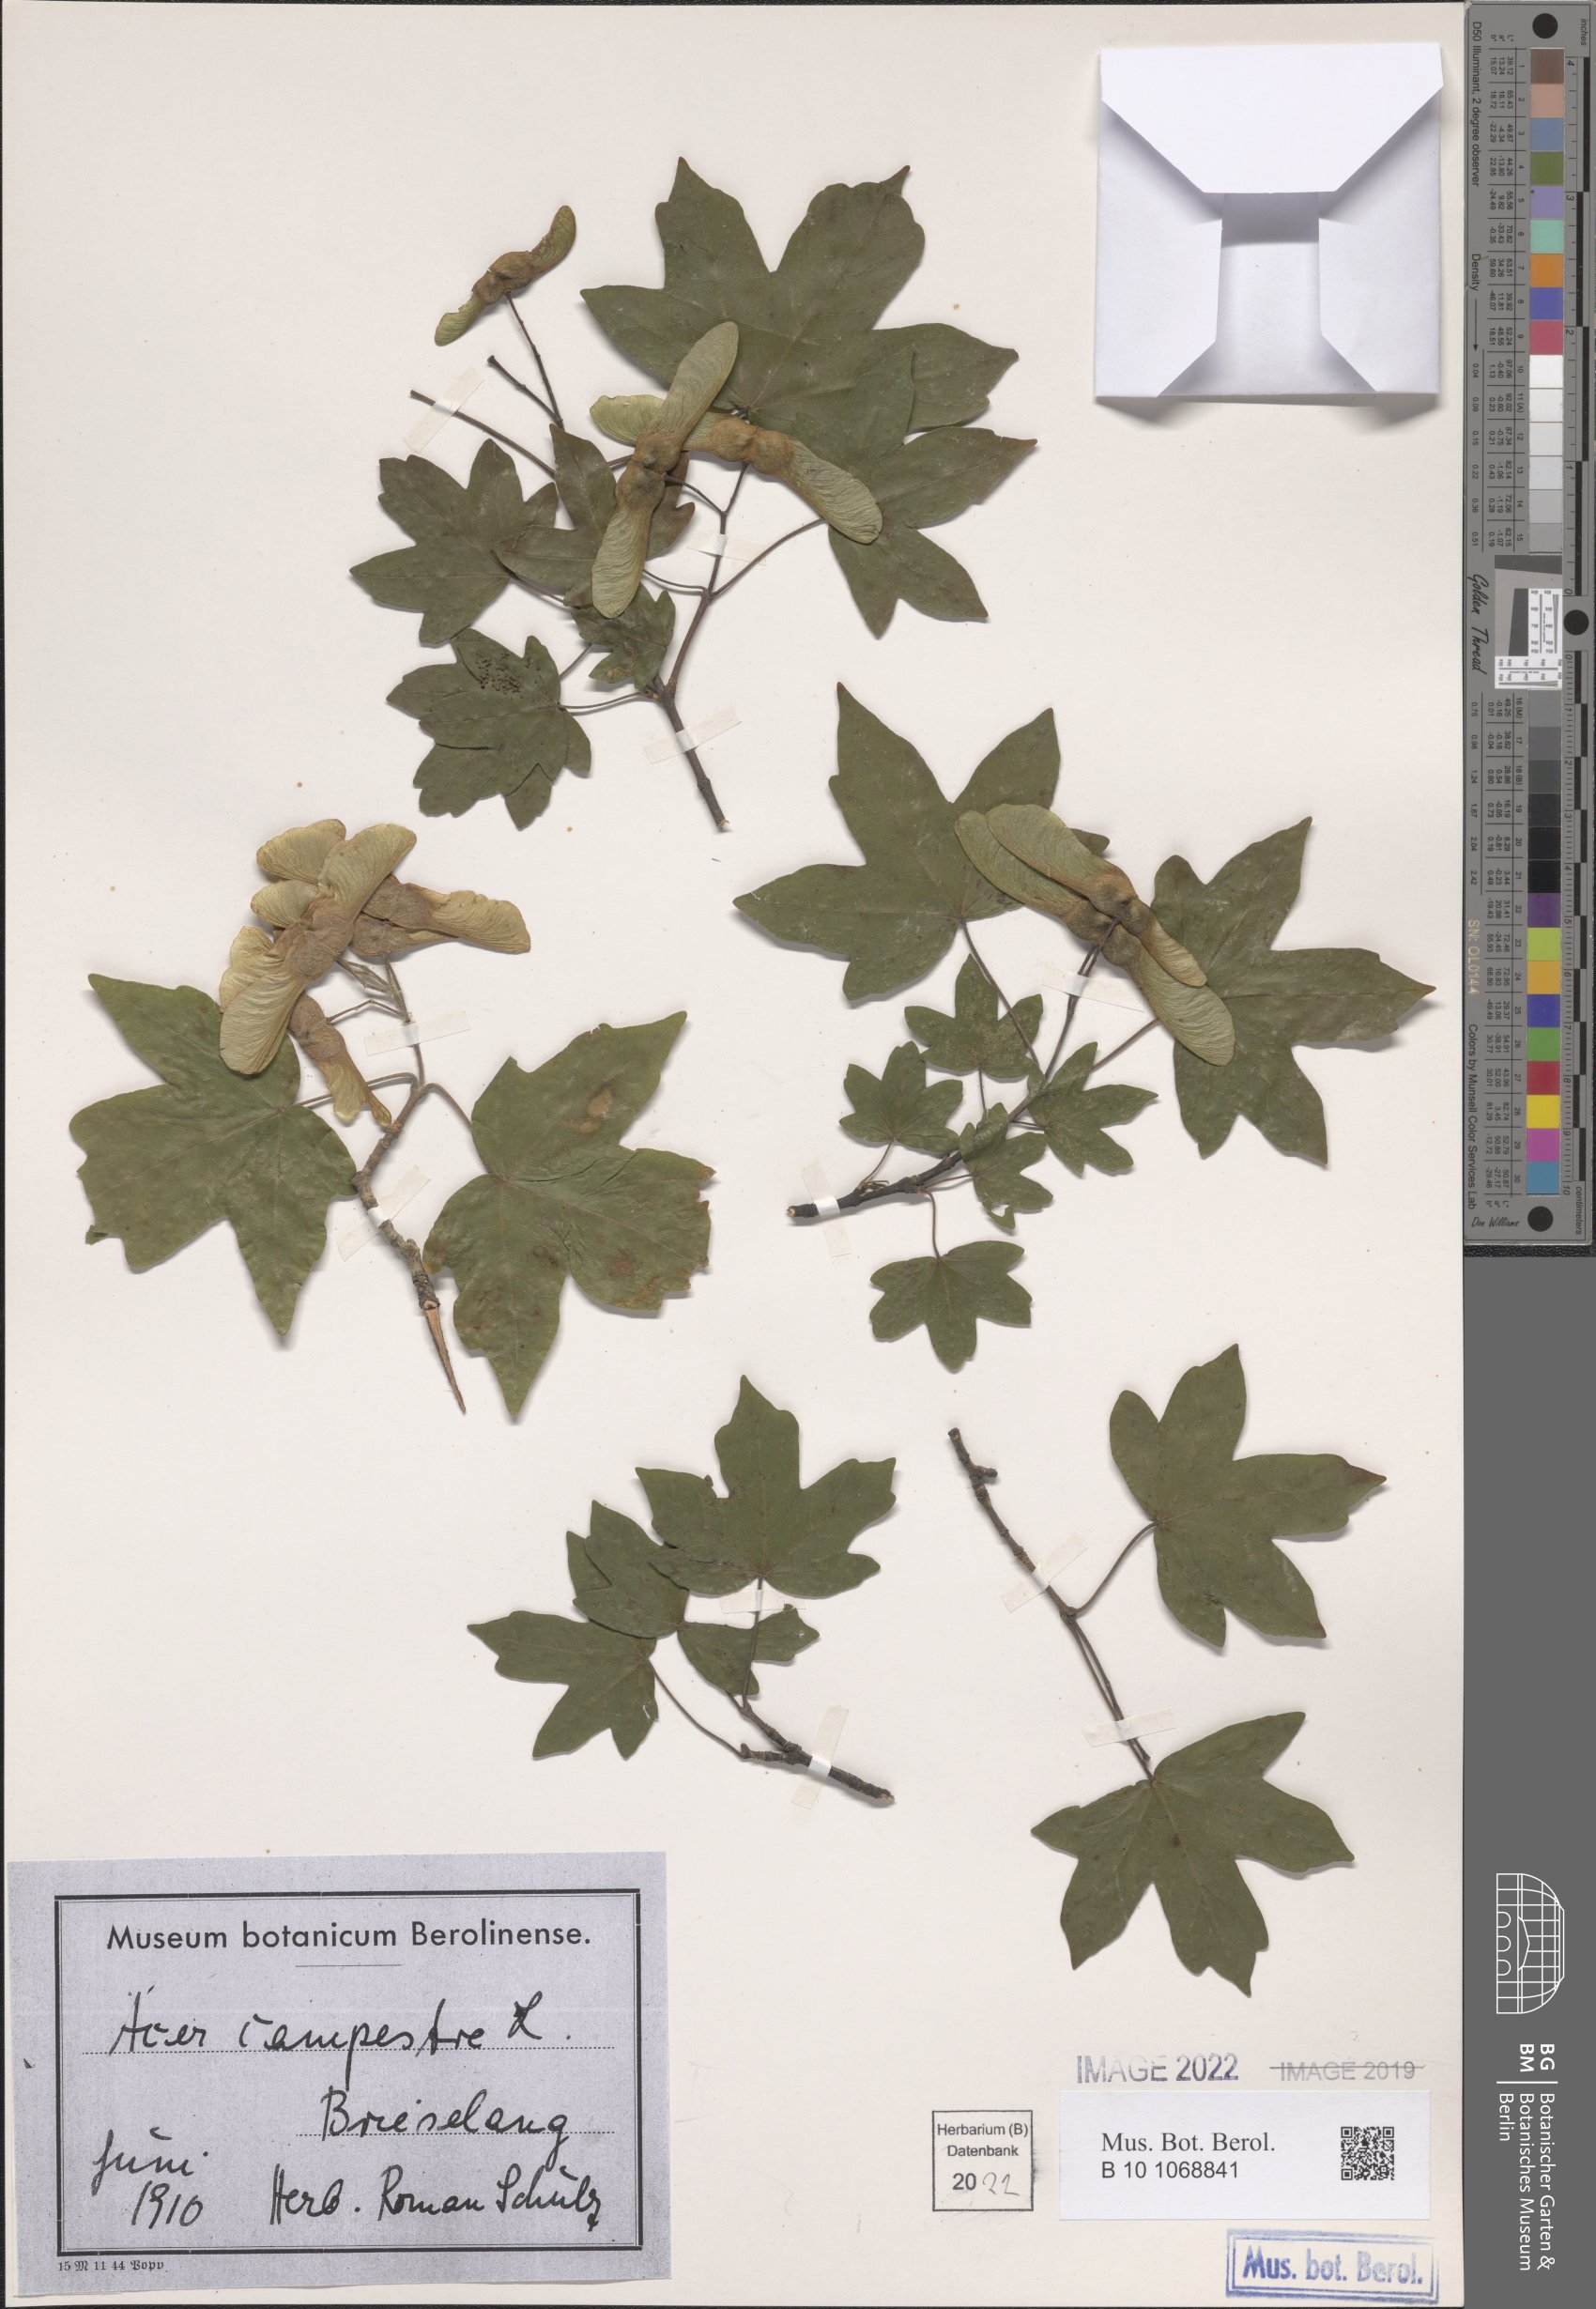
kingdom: Plantae
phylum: Tracheophyta
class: Magnoliopsida
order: Sapindales
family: Sapindaceae
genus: Acer
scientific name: Acer campestre
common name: Field maple
